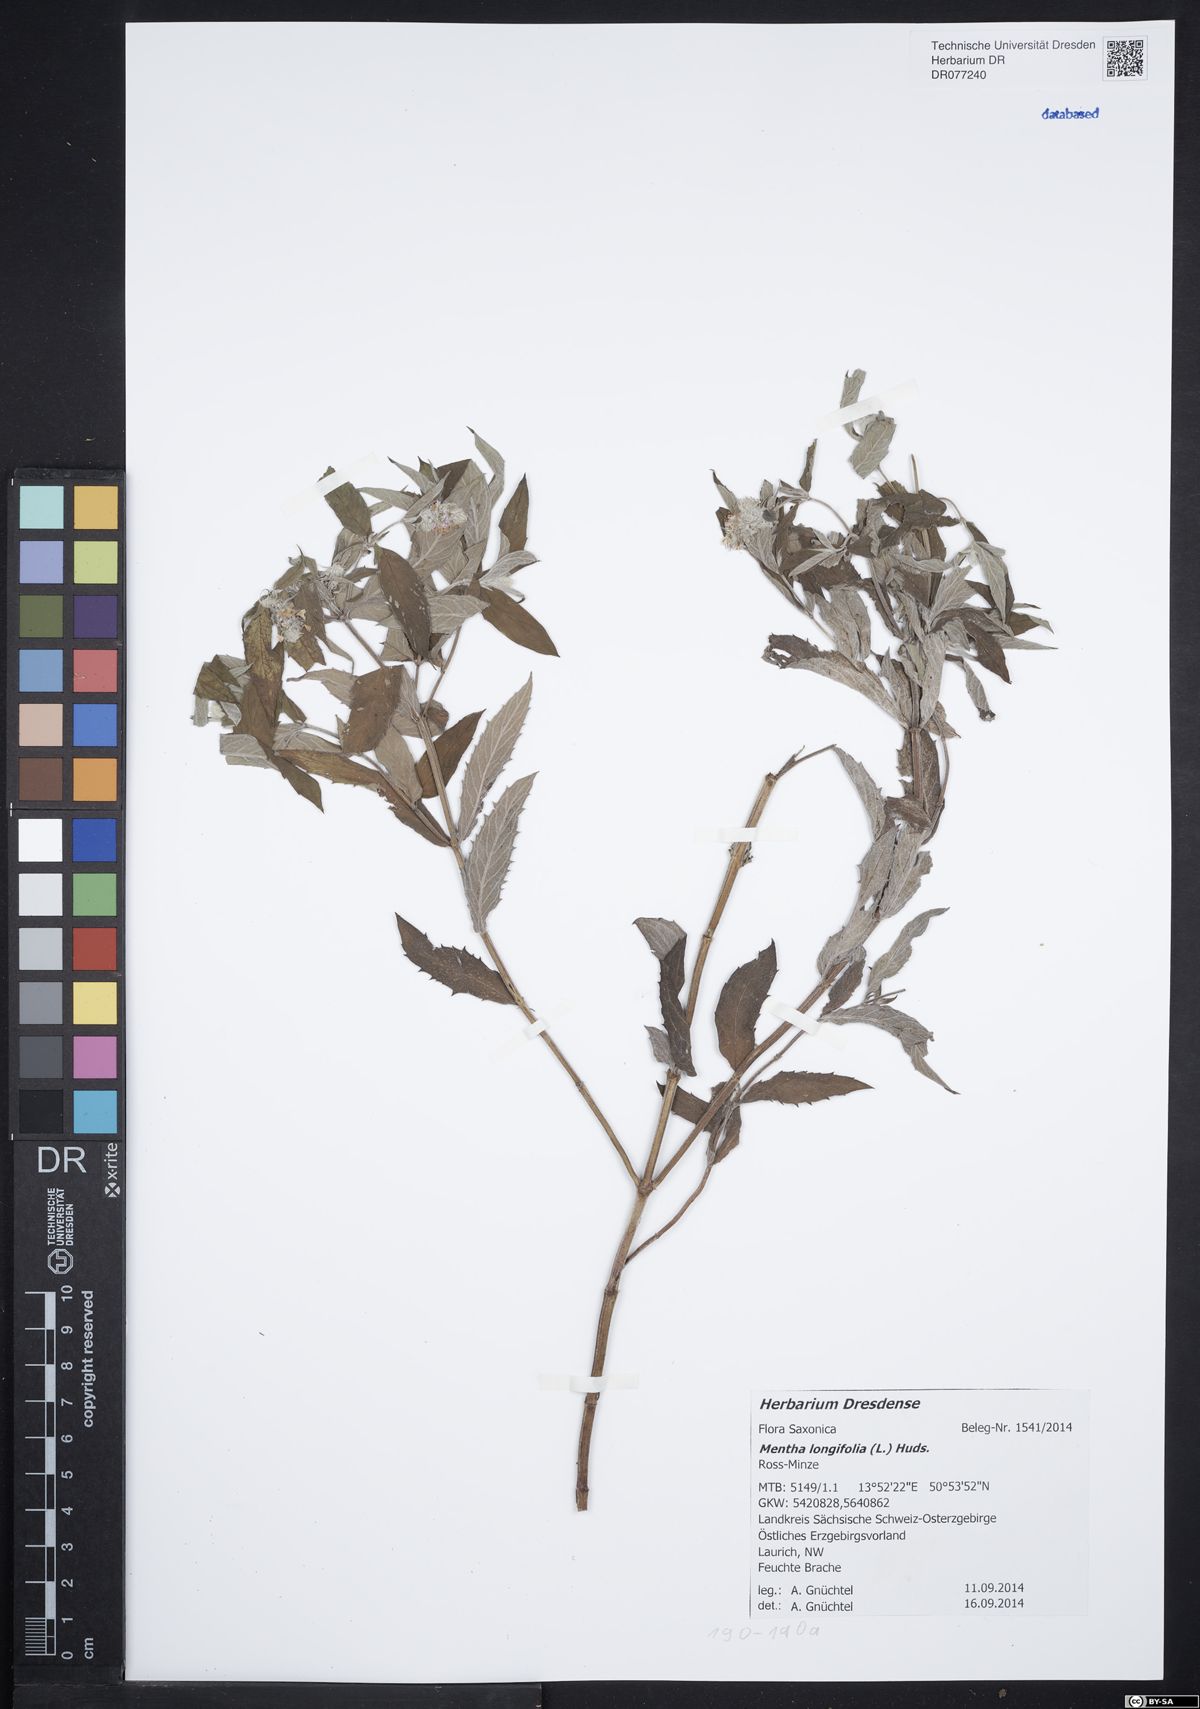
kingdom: Plantae
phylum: Tracheophyta
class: Magnoliopsida
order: Lamiales
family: Lamiaceae
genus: Mentha
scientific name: Mentha longifolia
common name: Horse mint
